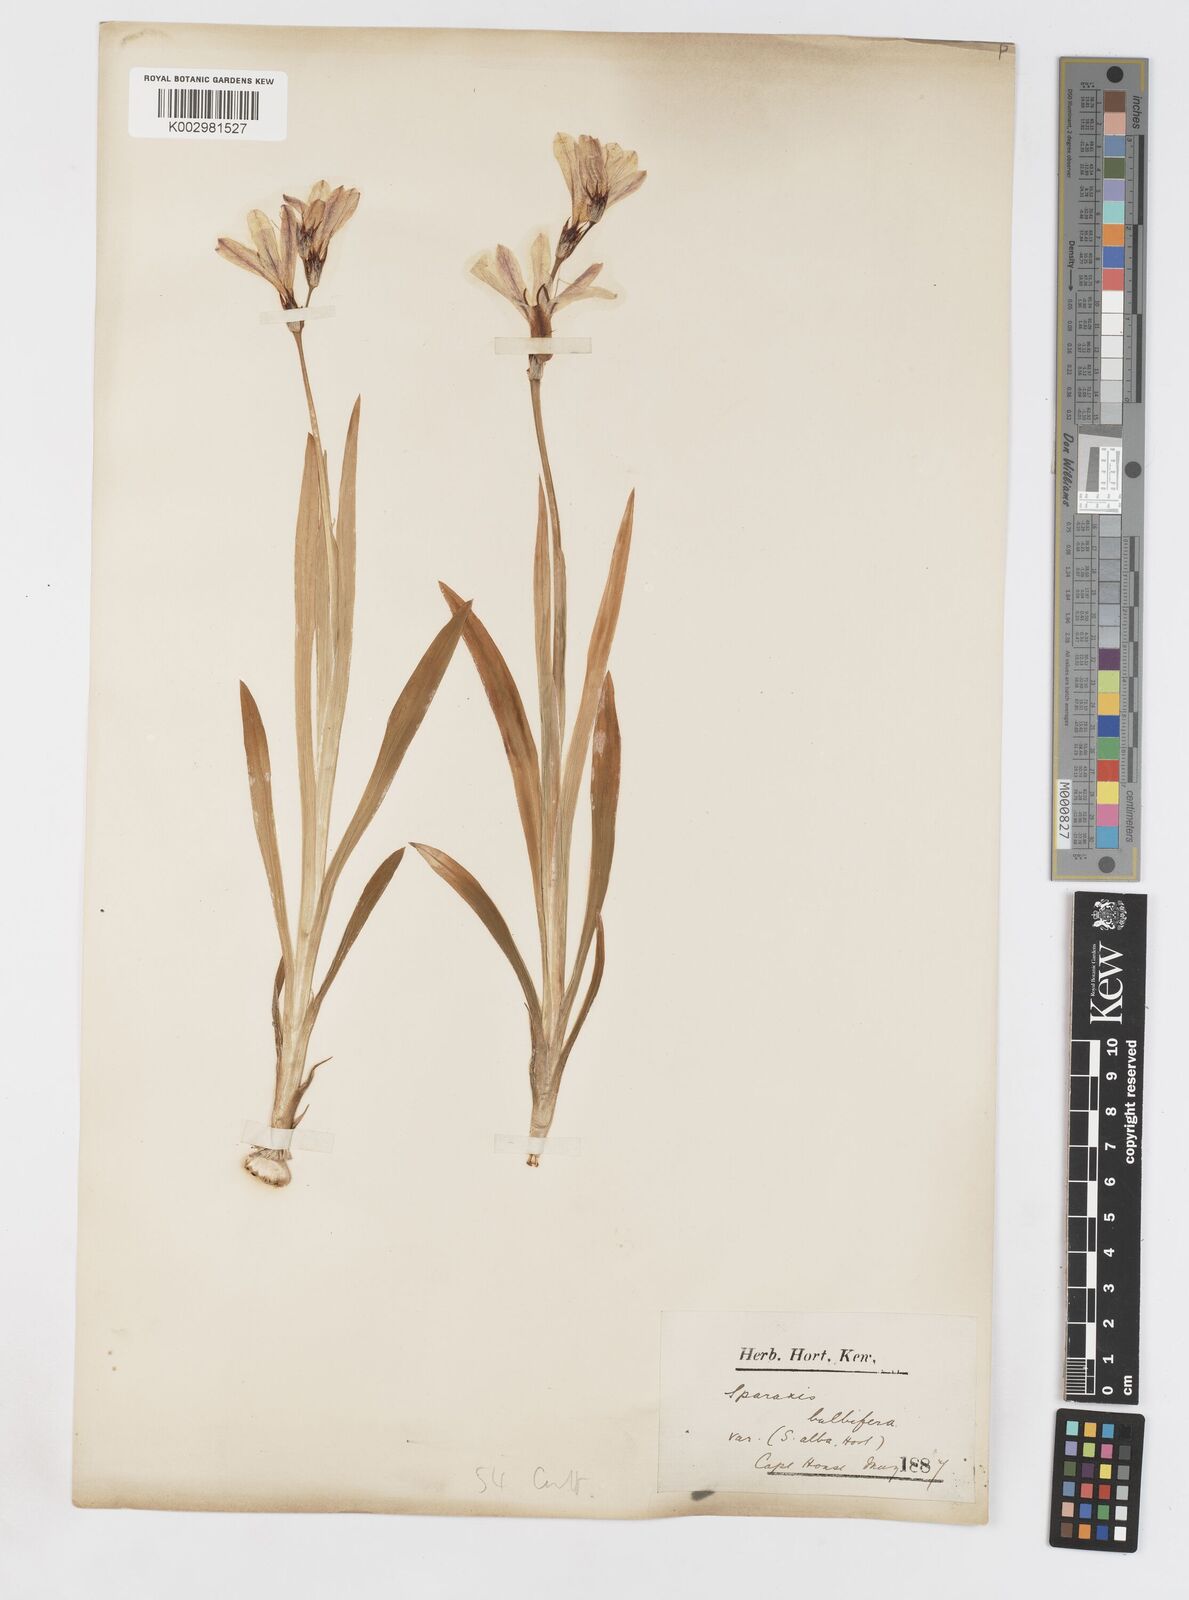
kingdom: Plantae
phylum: Tracheophyta
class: Liliopsida
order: Asparagales
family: Iridaceae
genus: Sparaxis
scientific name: Sparaxis bulbifera
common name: Harlequin-flower
